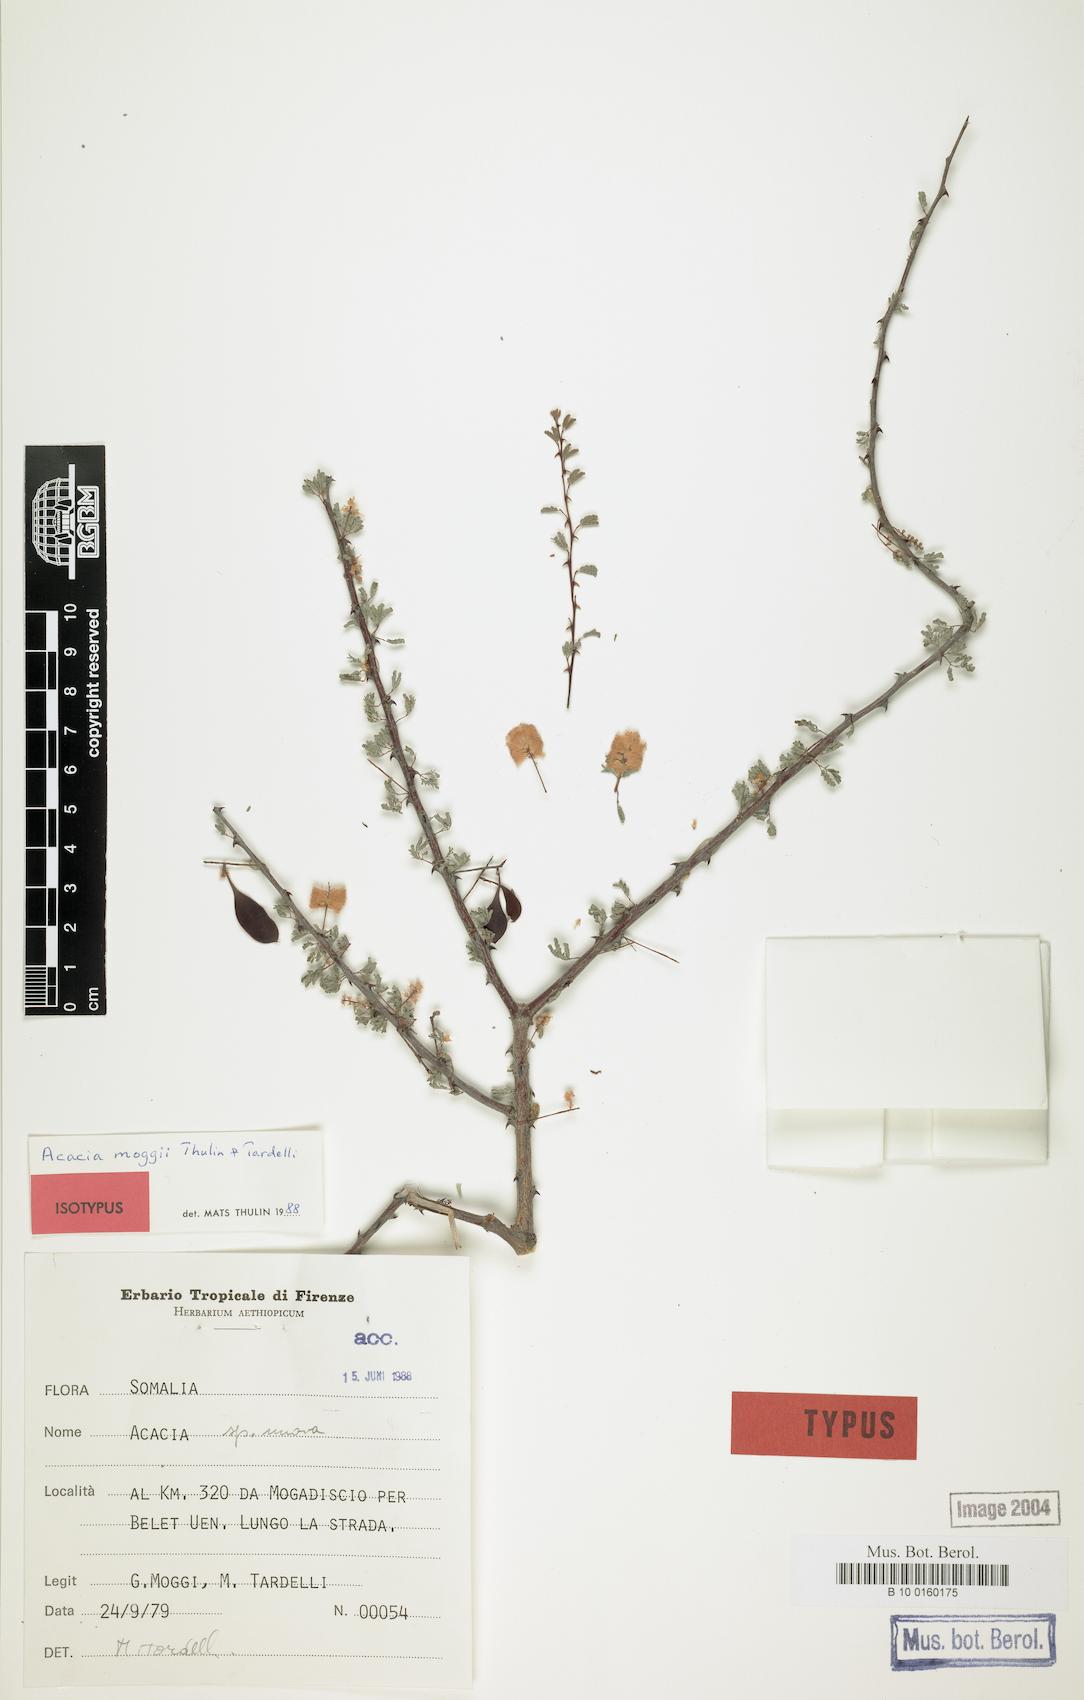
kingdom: Plantae
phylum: Tracheophyta
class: Magnoliopsida
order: Fabales
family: Fabaceae
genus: Senegalia
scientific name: Senegalia moggii
